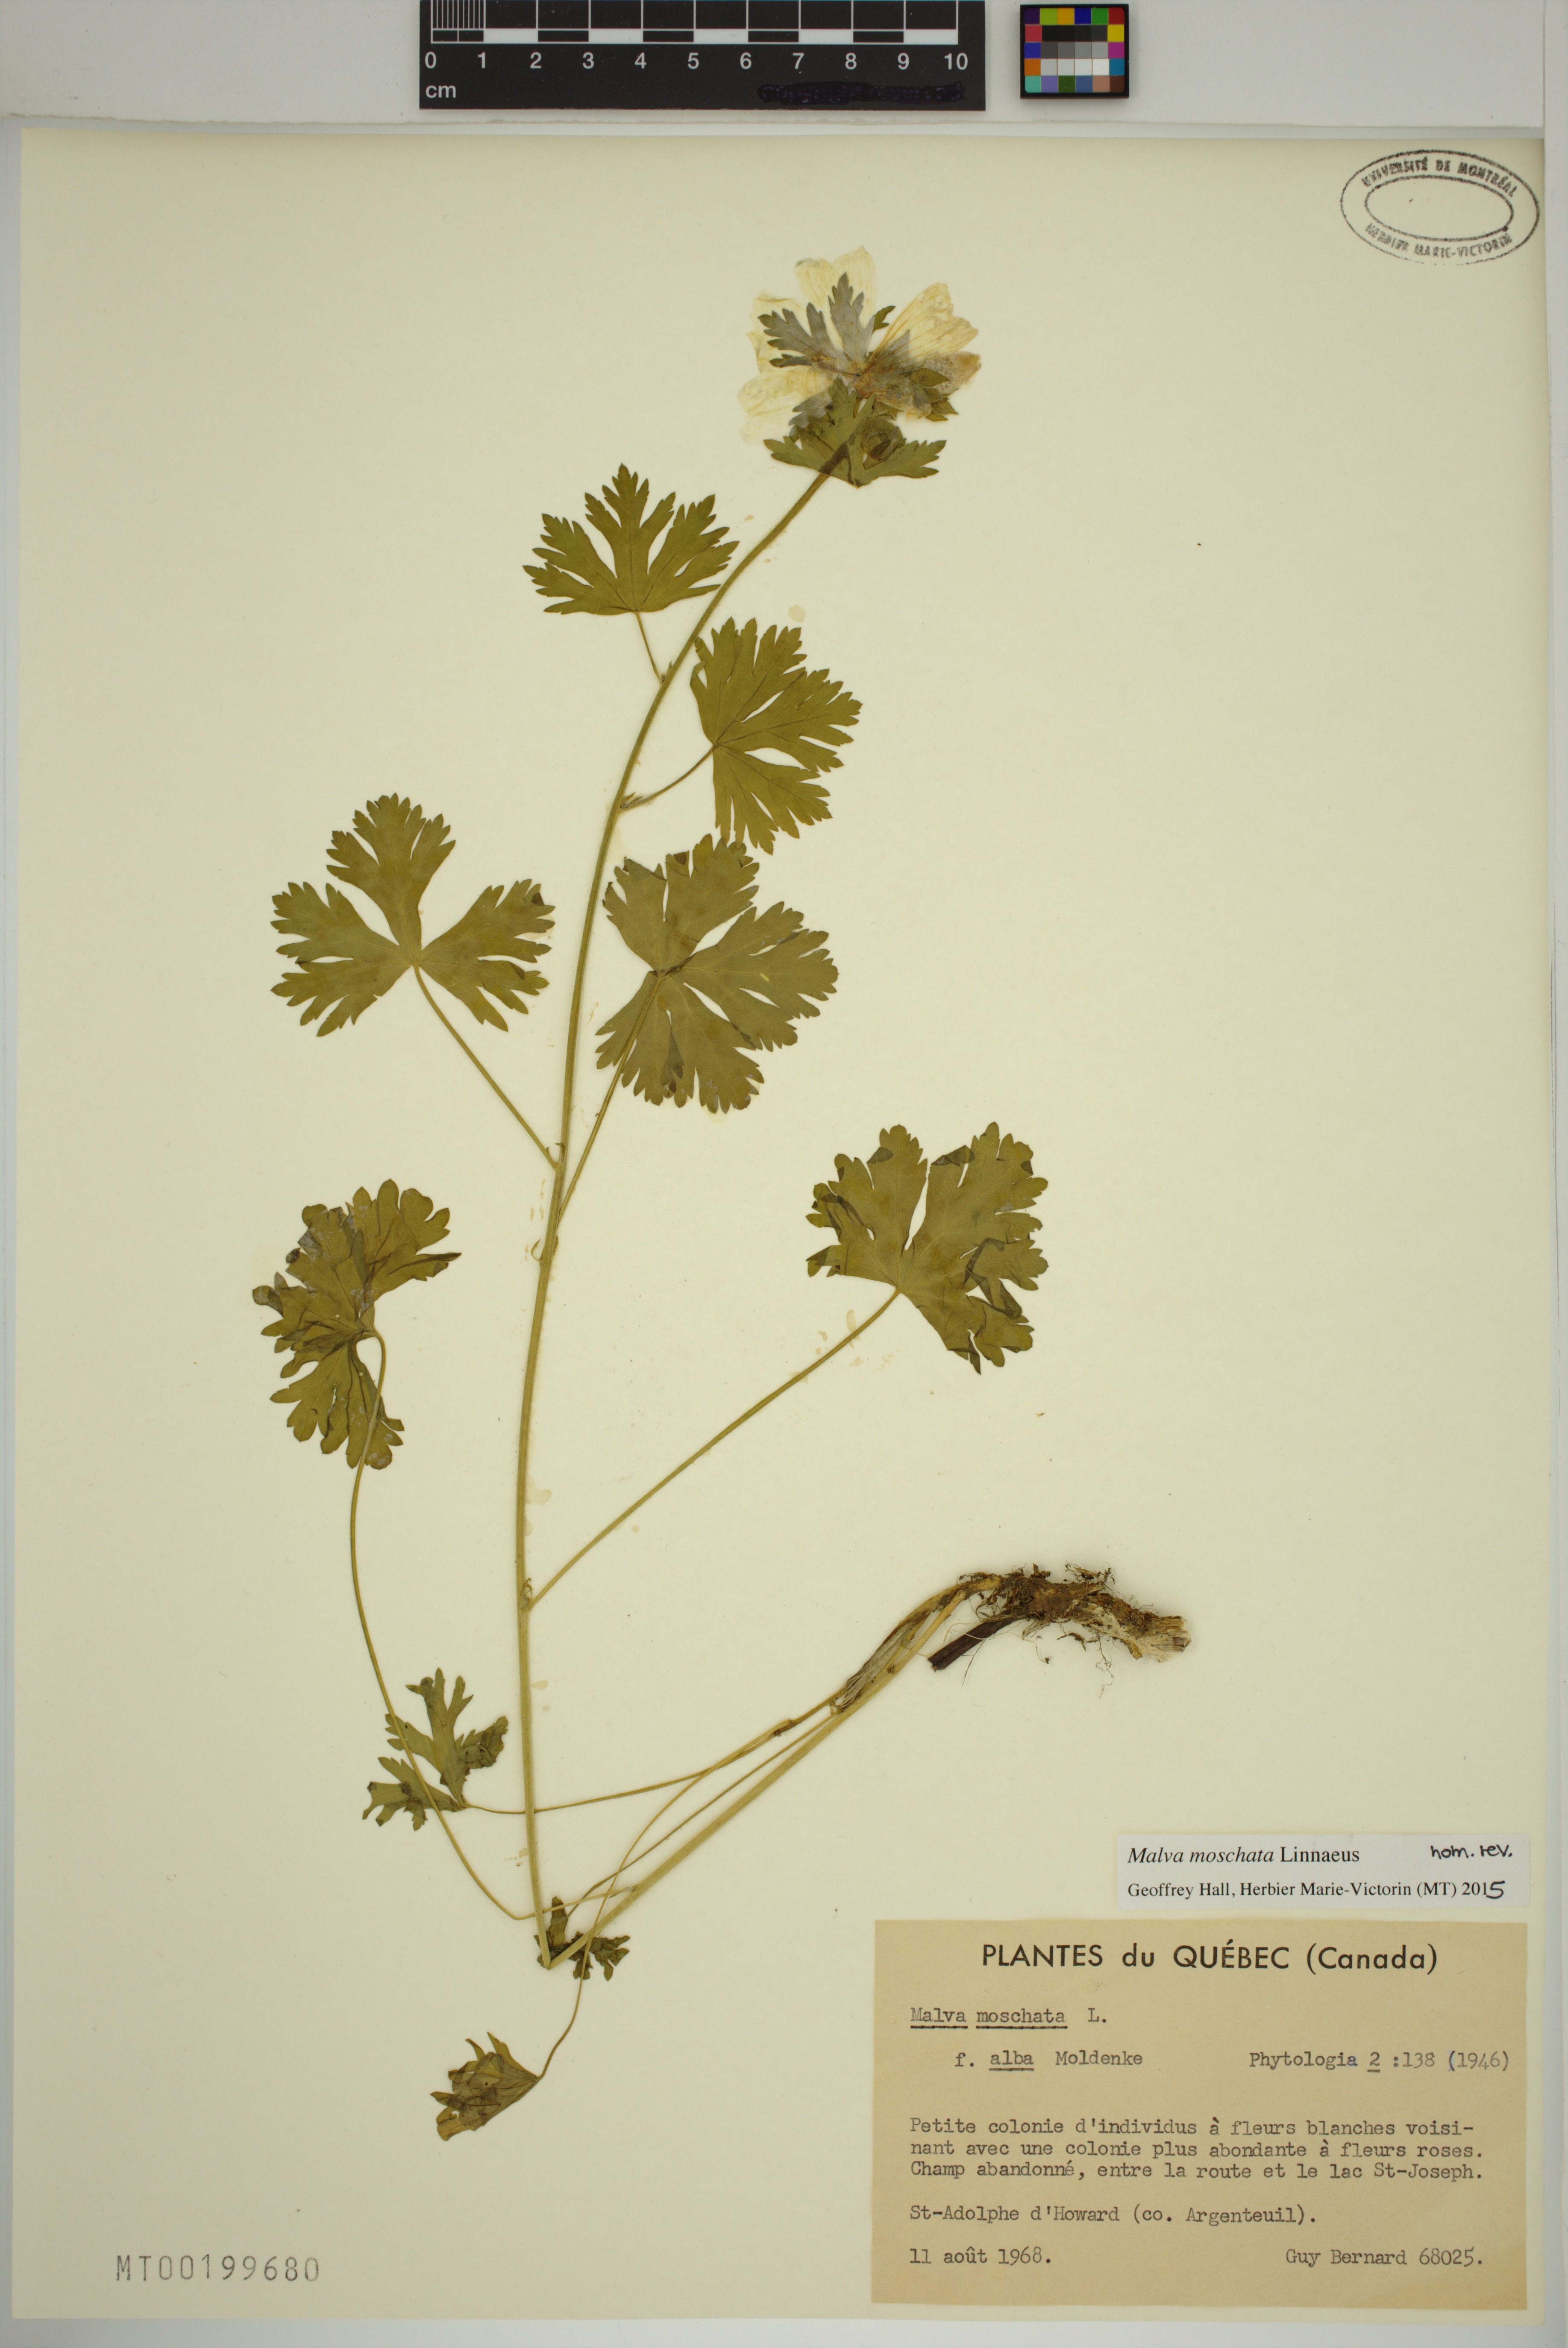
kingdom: Plantae
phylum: Tracheophyta
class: Magnoliopsida
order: Malvales
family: Malvaceae
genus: Malva
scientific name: Malva moschata
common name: Musk mallow
